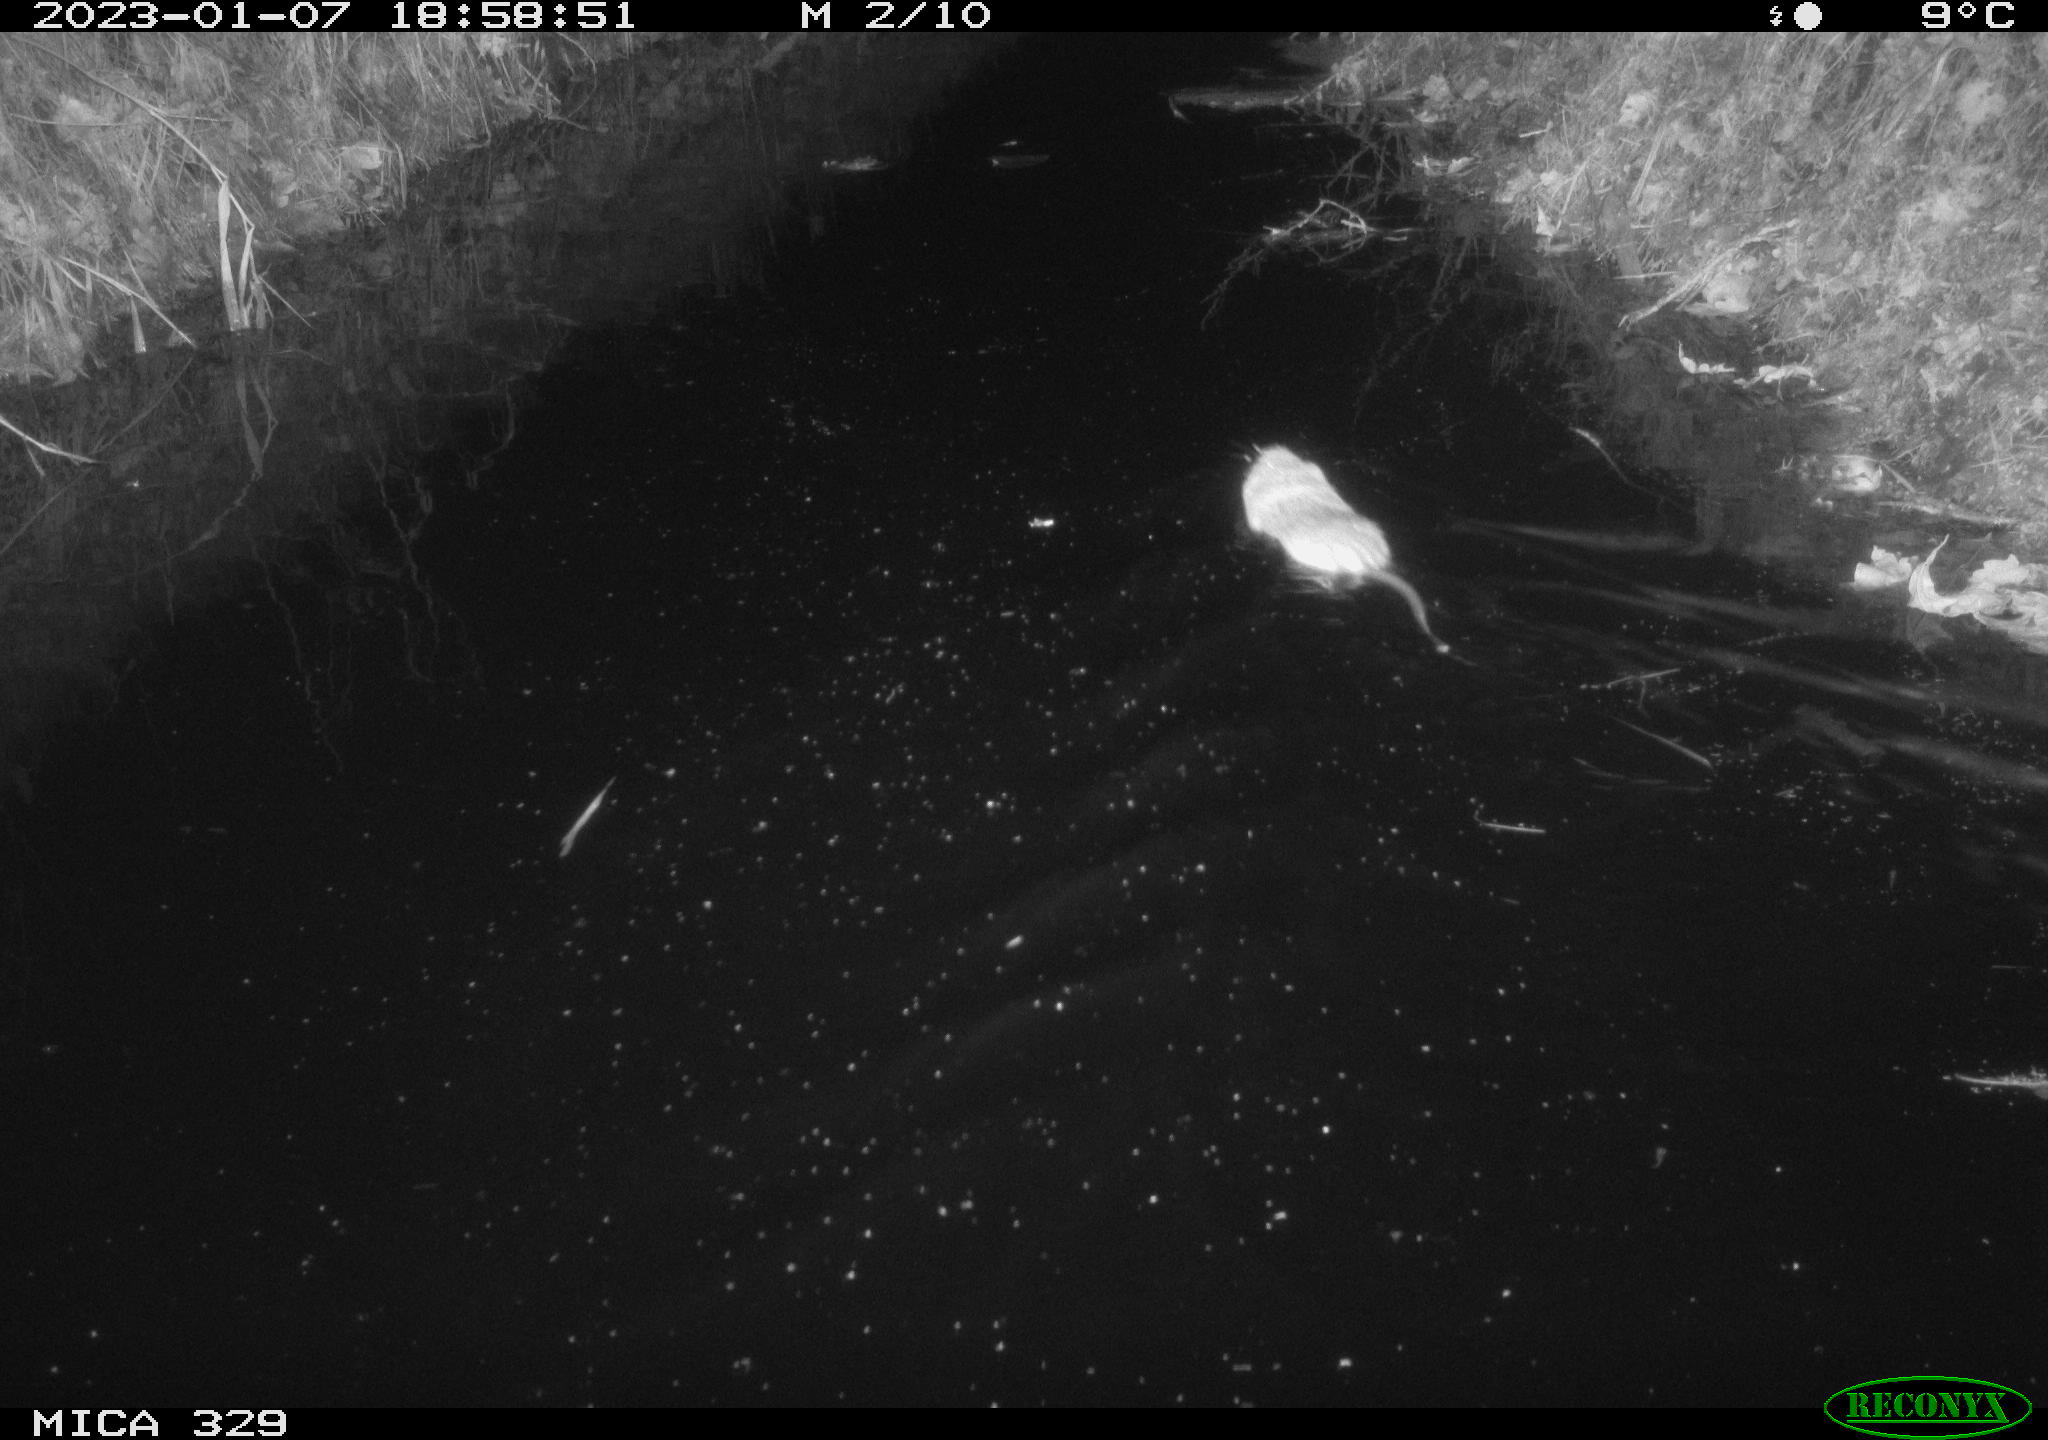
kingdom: Animalia
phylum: Chordata
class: Mammalia
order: Rodentia
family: Cricetidae
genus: Ondatra
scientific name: Ondatra zibethicus
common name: Muskrat
